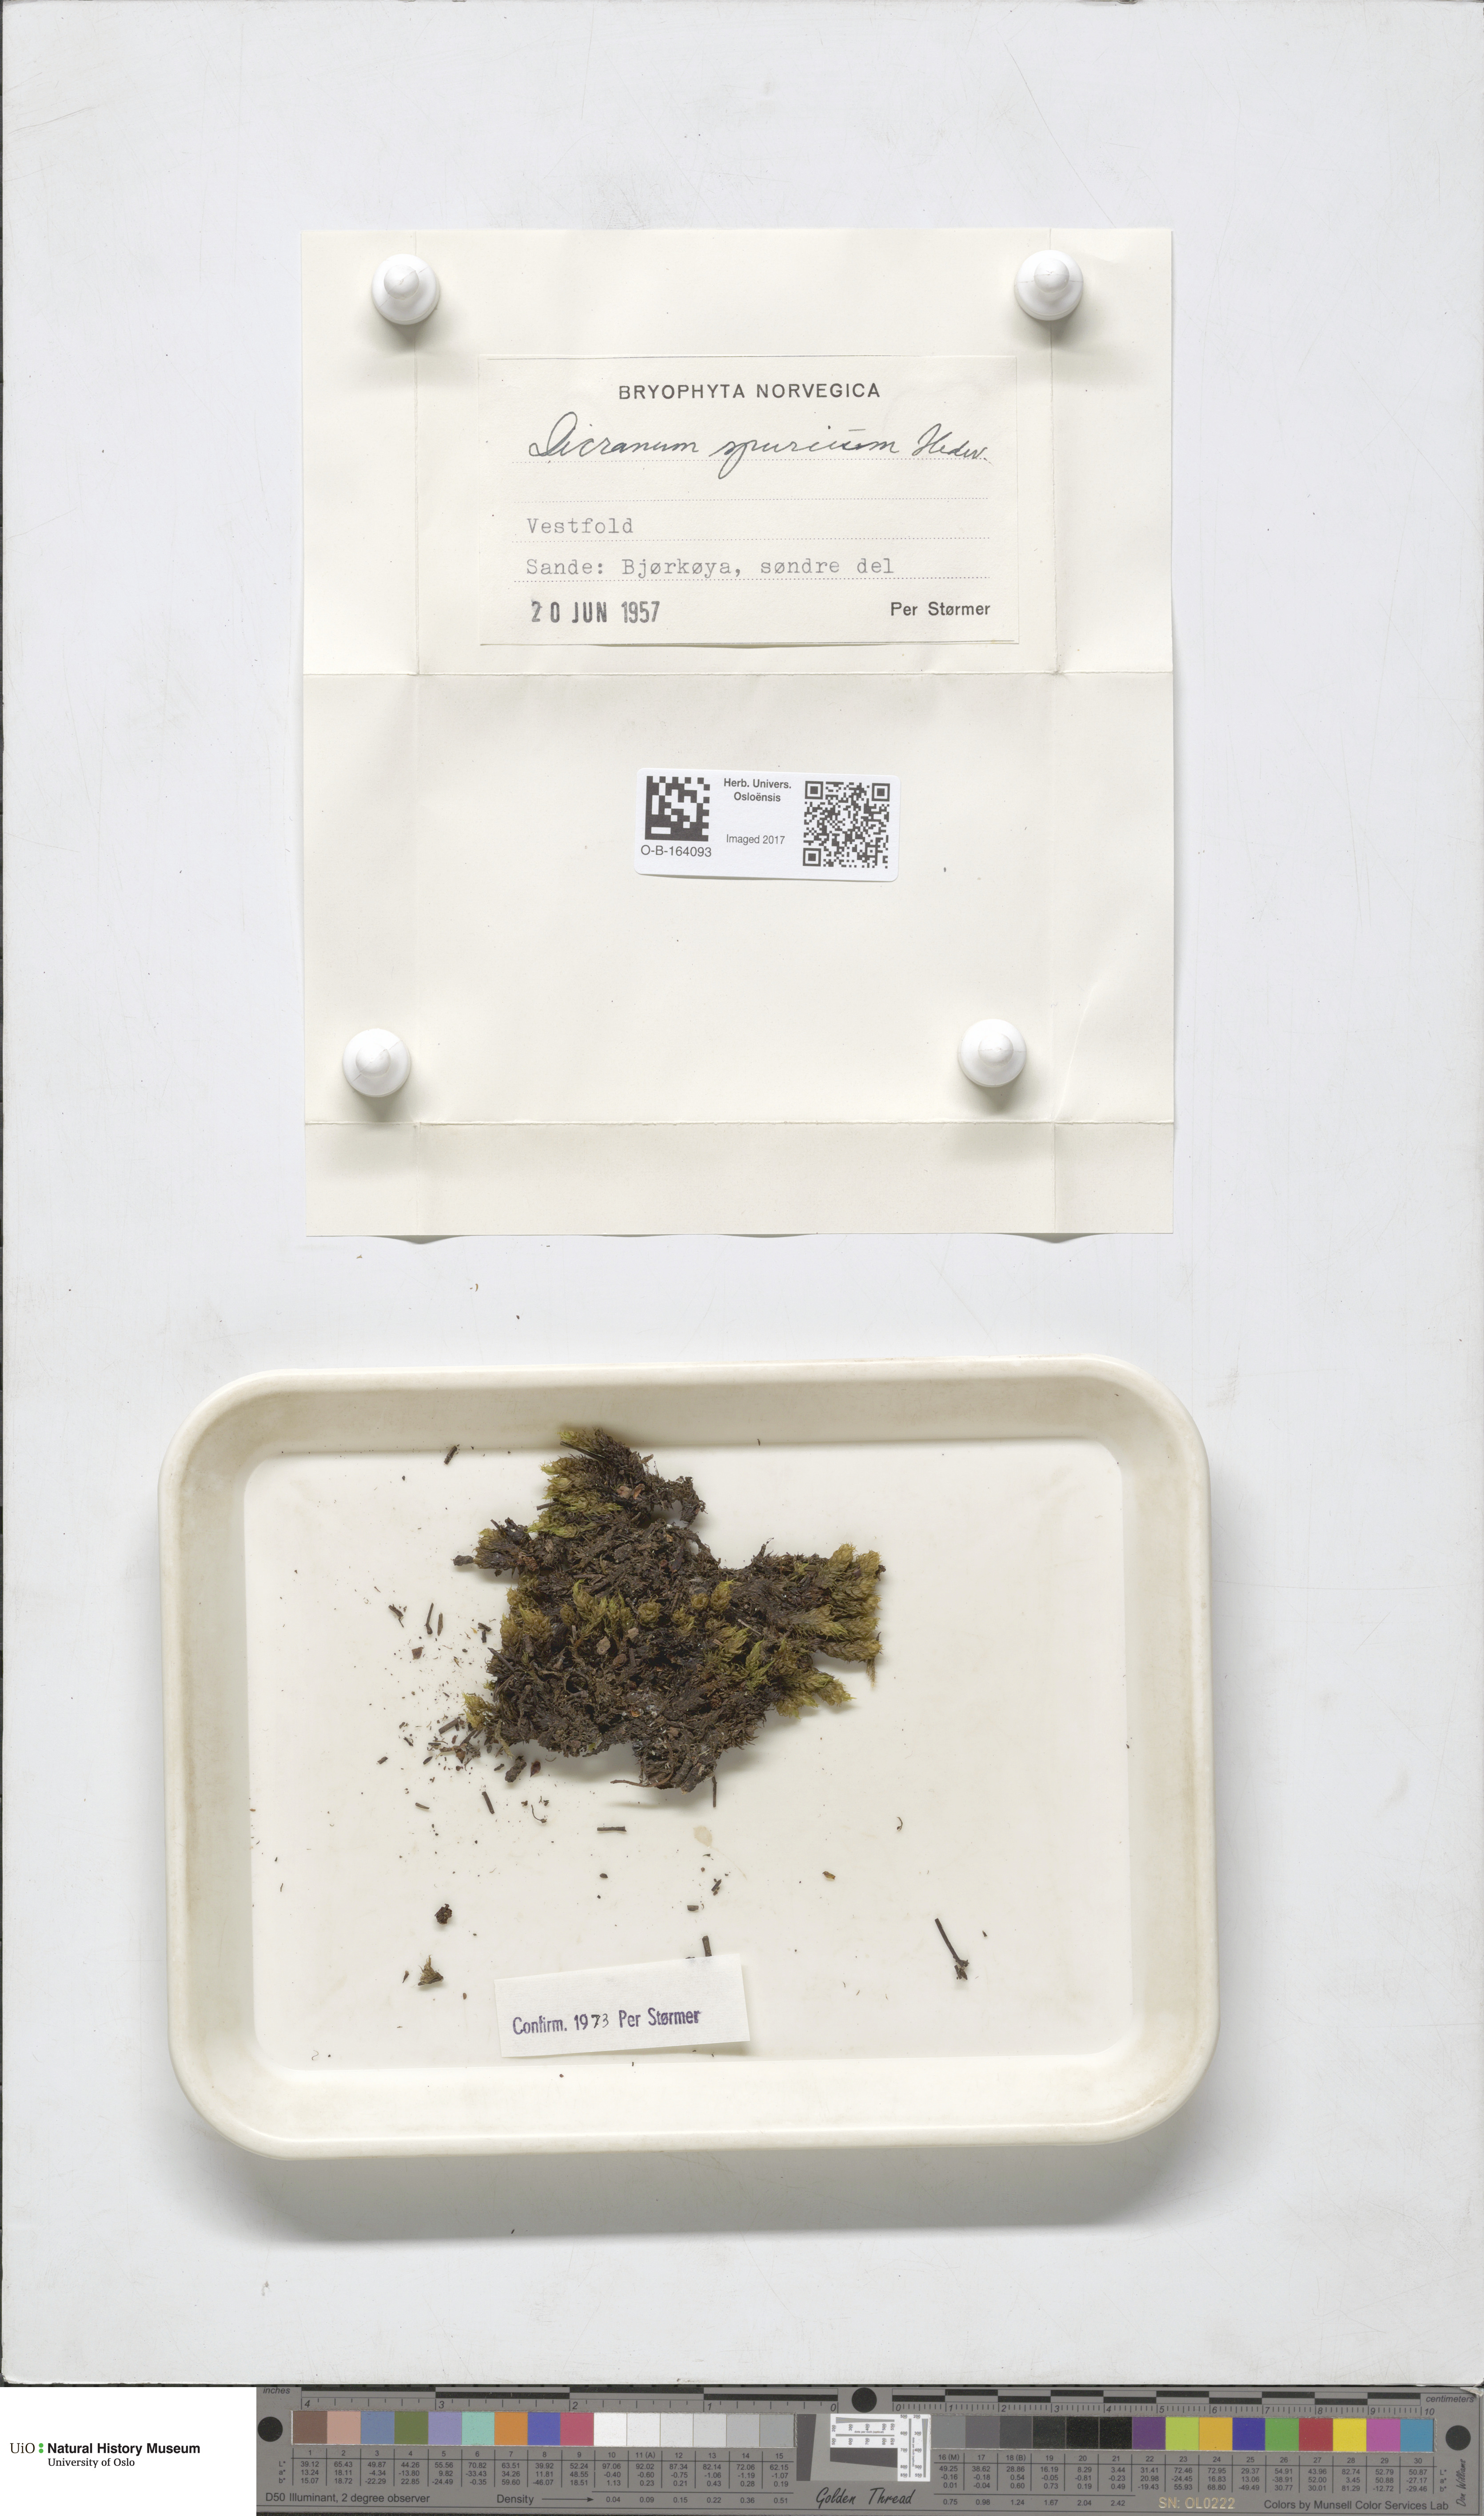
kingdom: Plantae
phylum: Bryophyta
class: Bryopsida
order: Dicranales
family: Dicranaceae
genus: Dicranum
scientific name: Dicranum spurium
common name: Spurred broom moss
